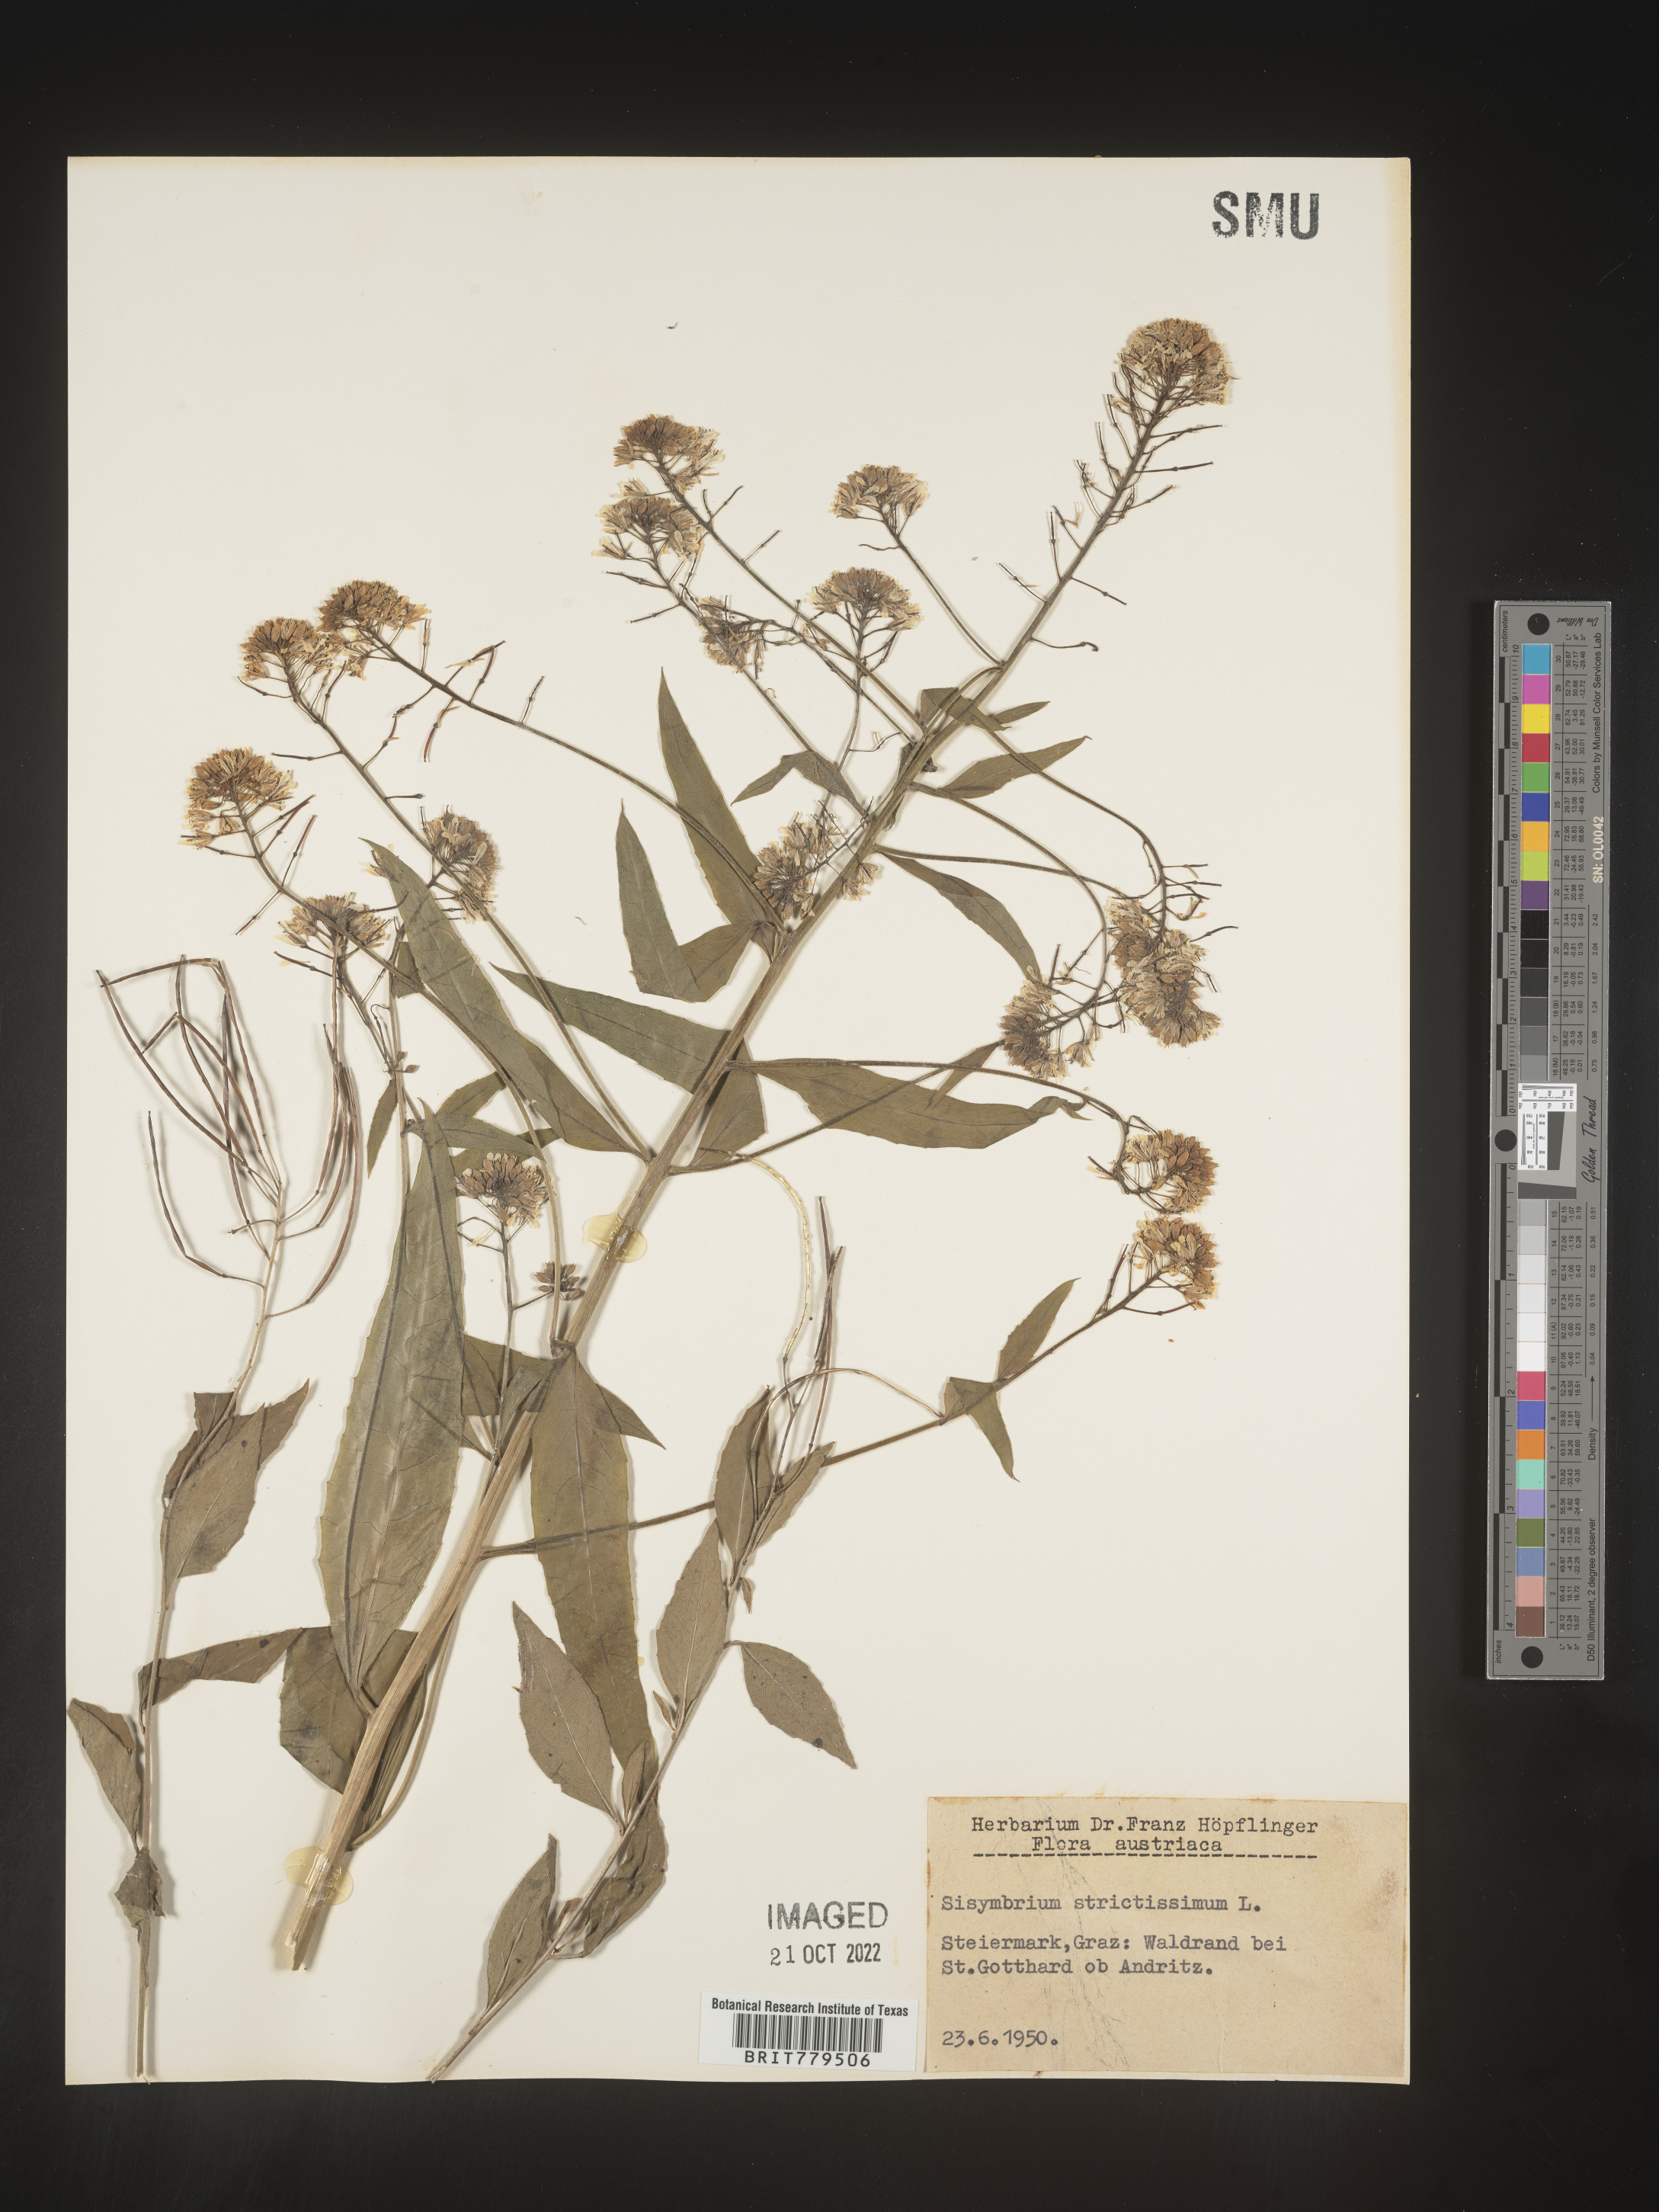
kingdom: Plantae
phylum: Tracheophyta
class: Magnoliopsida
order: Brassicales
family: Brassicaceae
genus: Sisymbrium
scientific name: Sisymbrium
